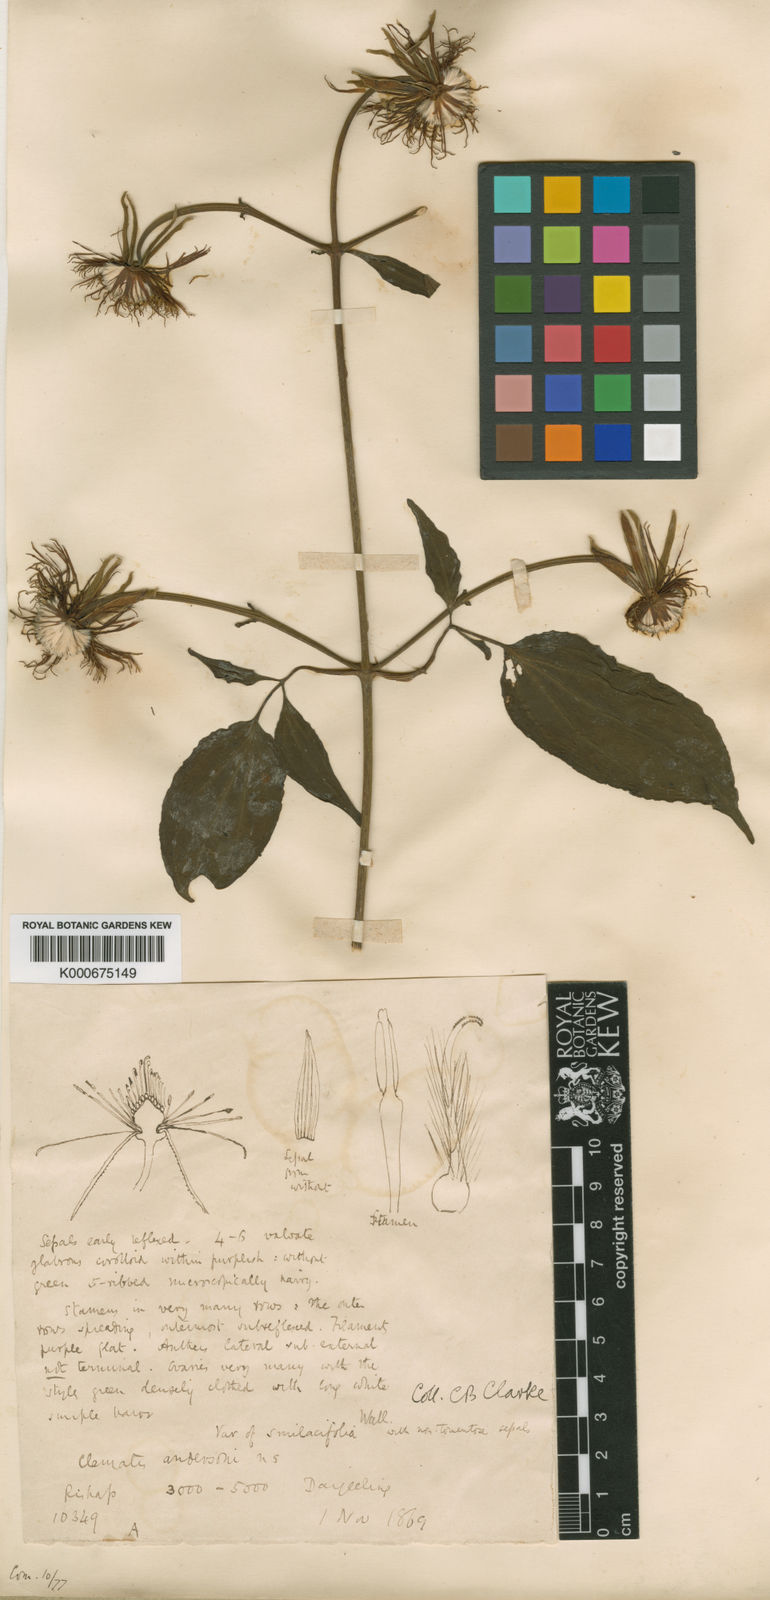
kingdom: Plantae
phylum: Tracheophyta
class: Magnoliopsida
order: Ranunculales
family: Ranunculaceae
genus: Clematis
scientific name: Clematis smilacifolia
